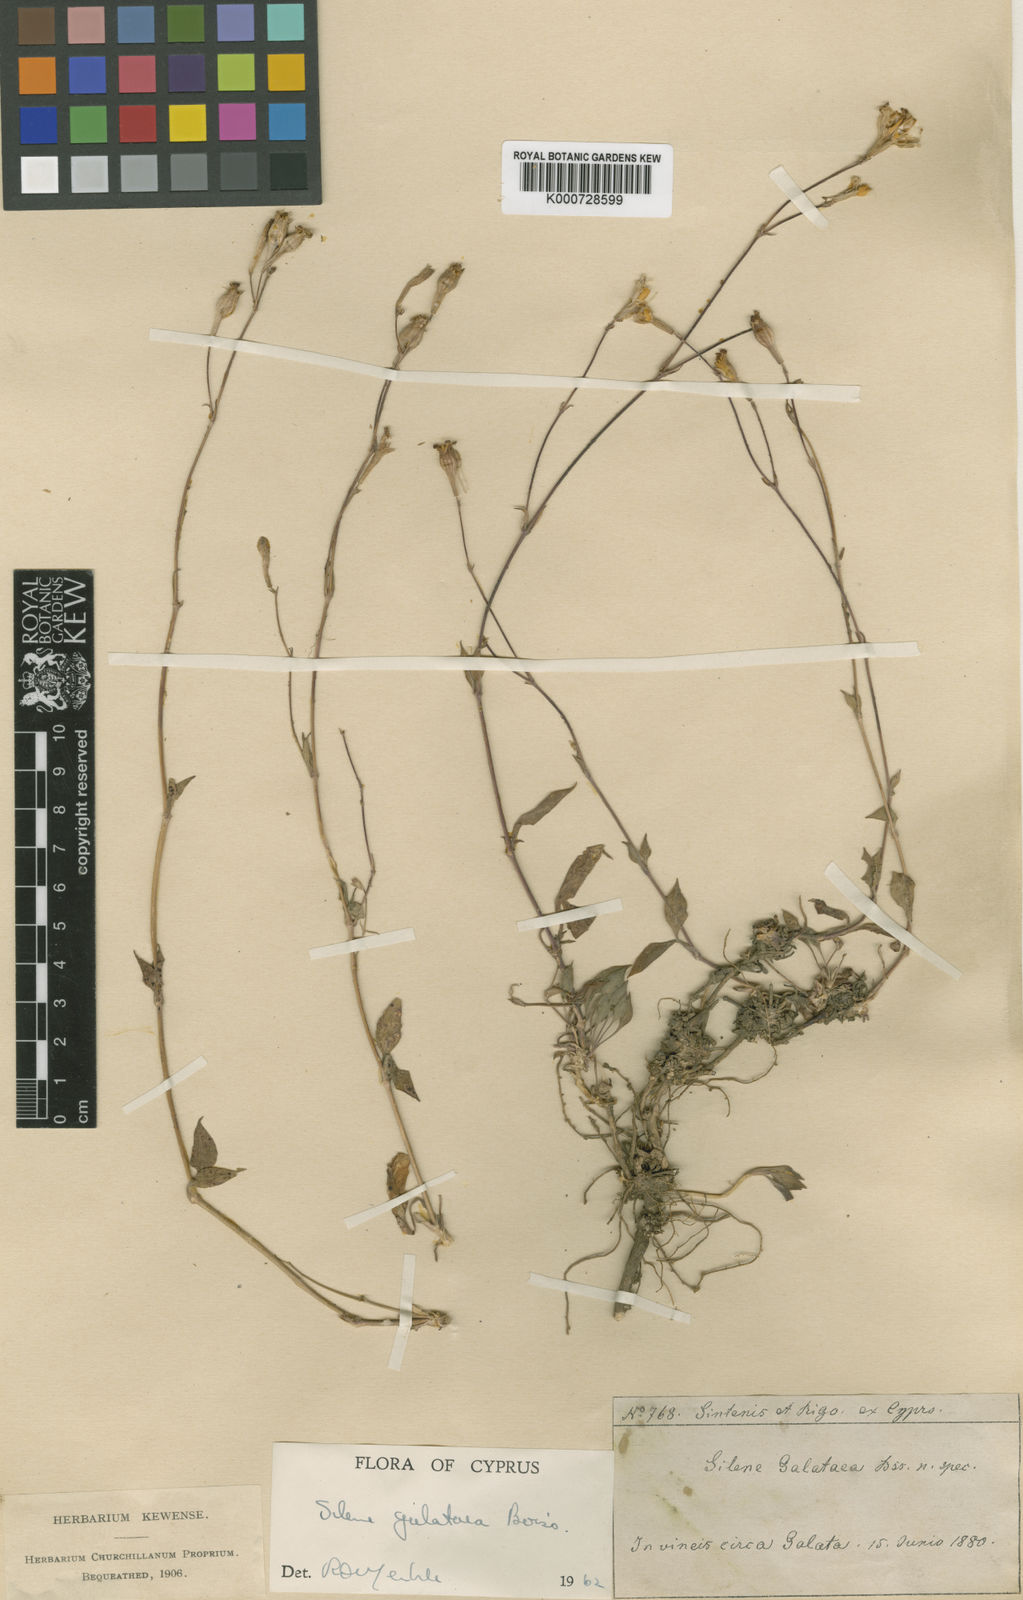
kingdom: Plantae
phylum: Tracheophyta
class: Magnoliopsida
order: Caryophyllales
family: Caryophyllaceae
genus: Silene
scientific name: Silene galataea
